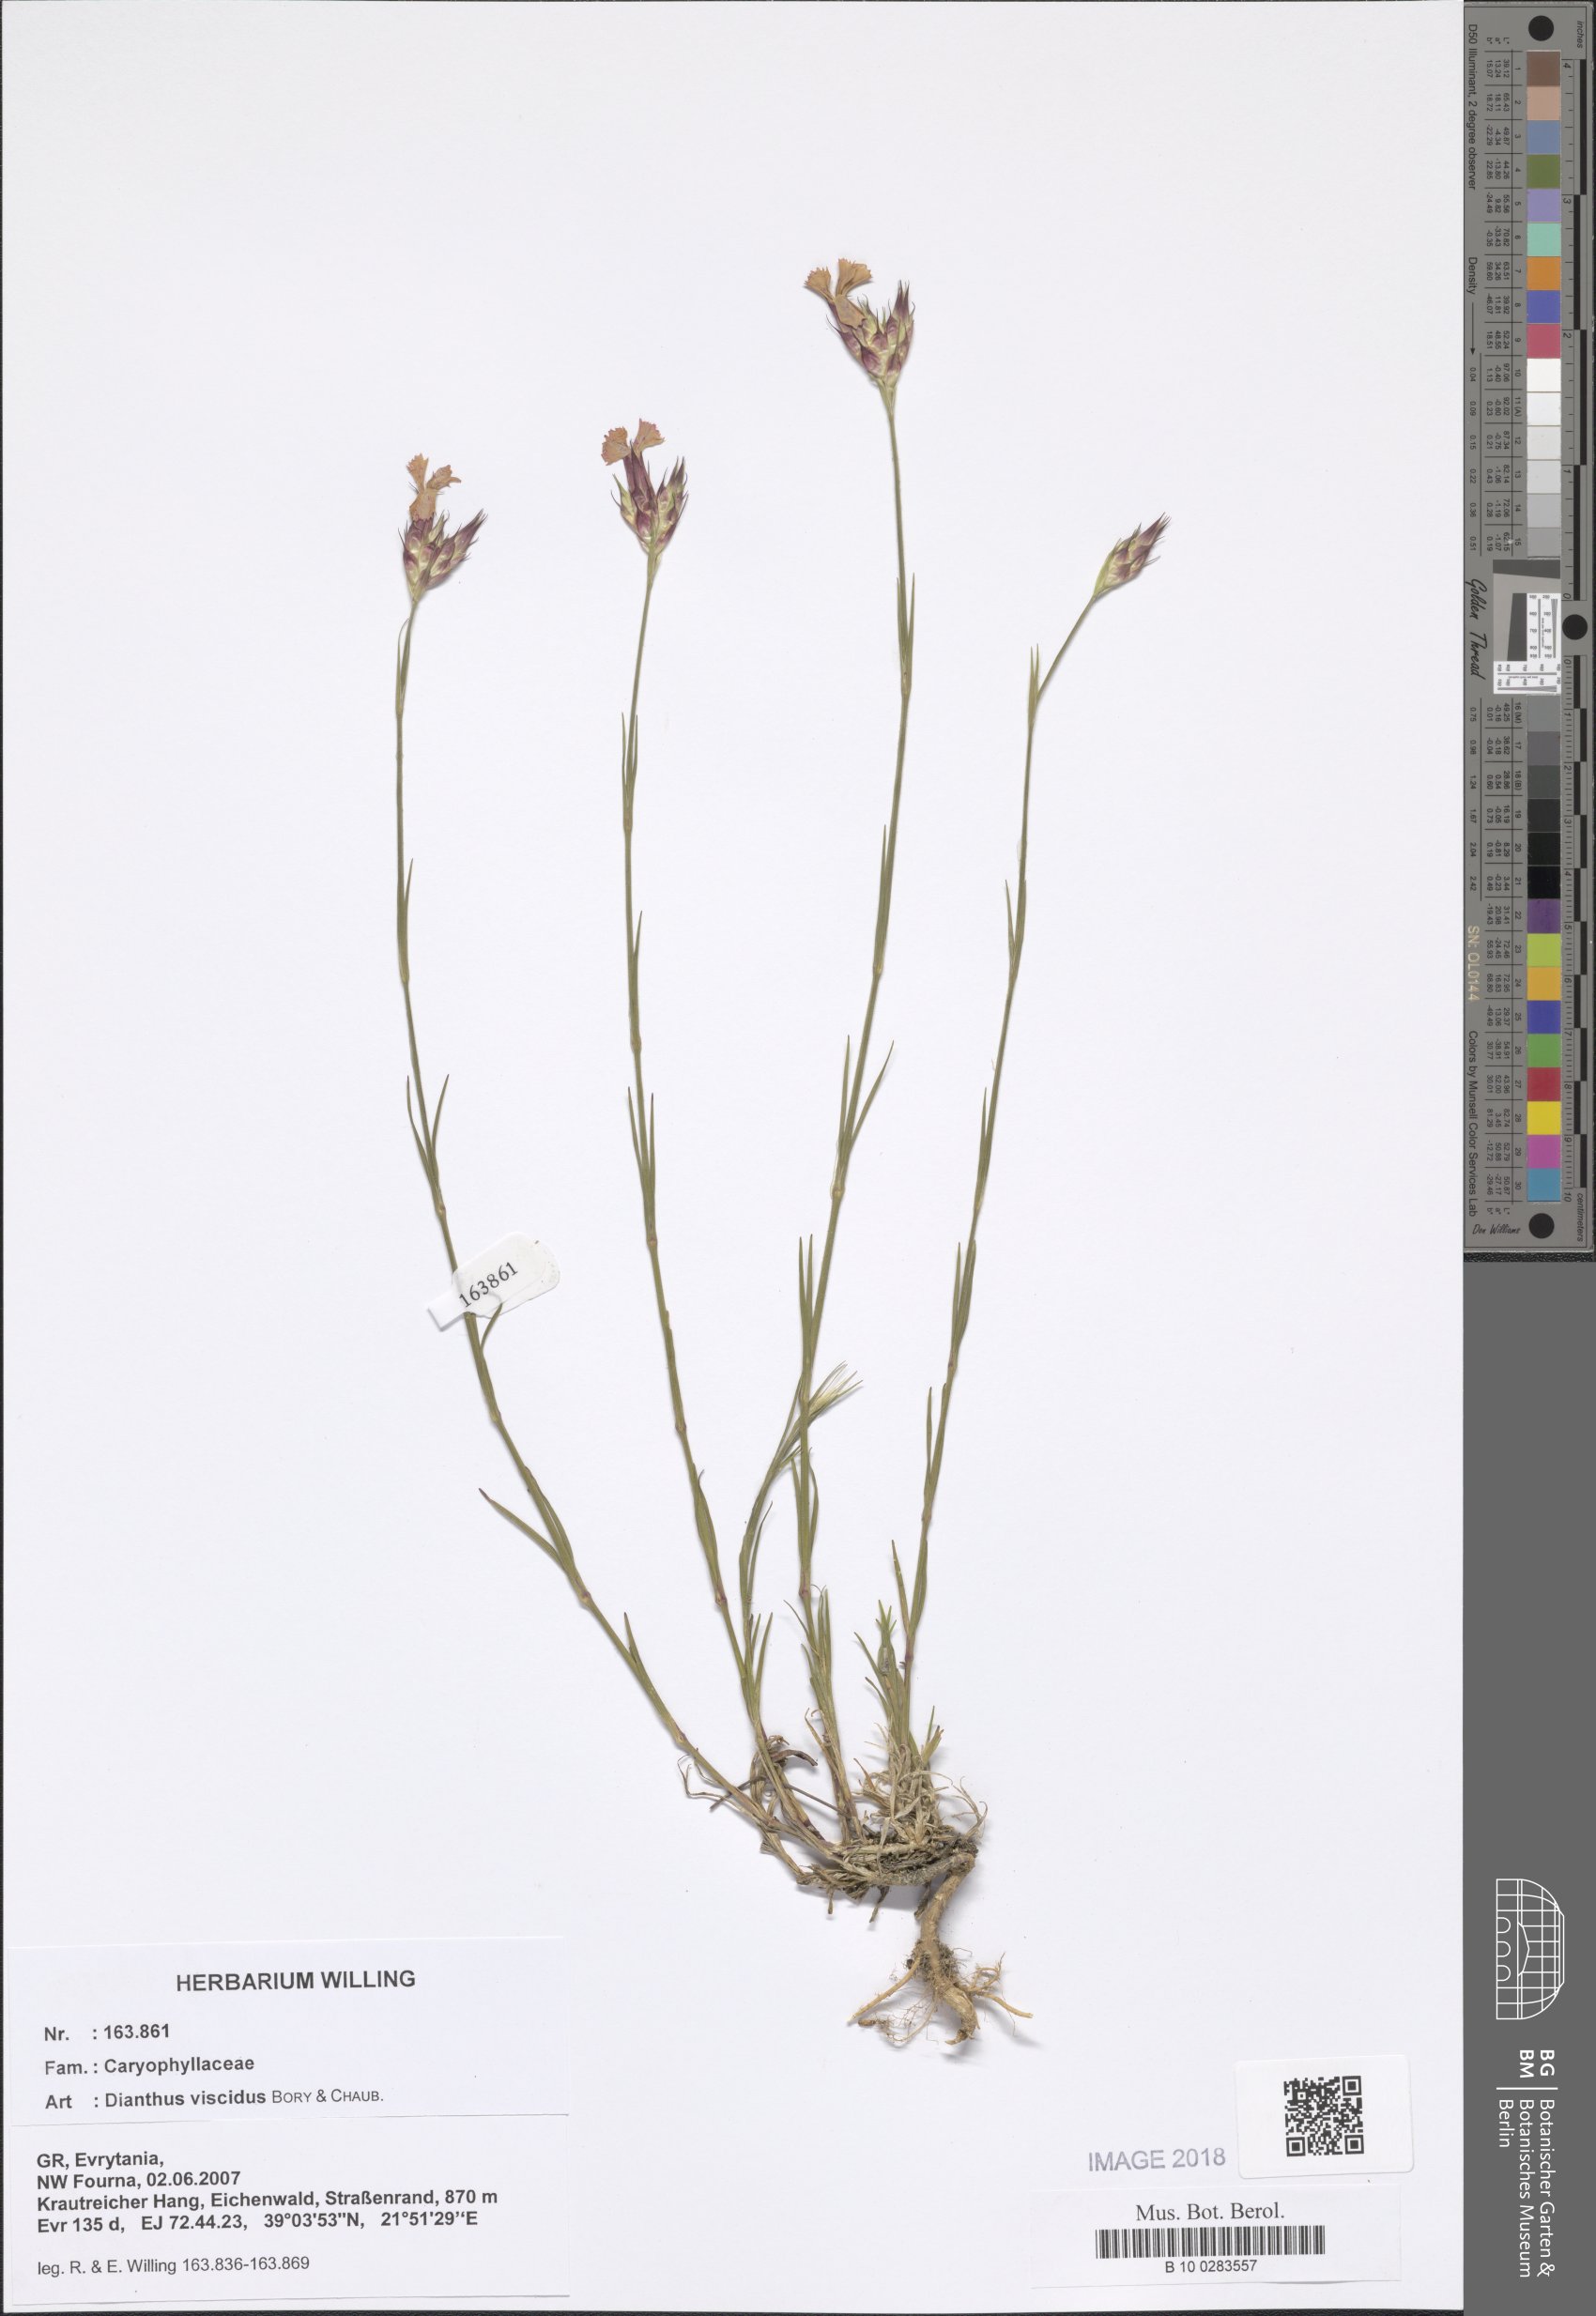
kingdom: Plantae
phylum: Tracheophyta
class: Magnoliopsida
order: Caryophyllales
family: Caryophyllaceae
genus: Dianthus
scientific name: Dianthus viscidus
